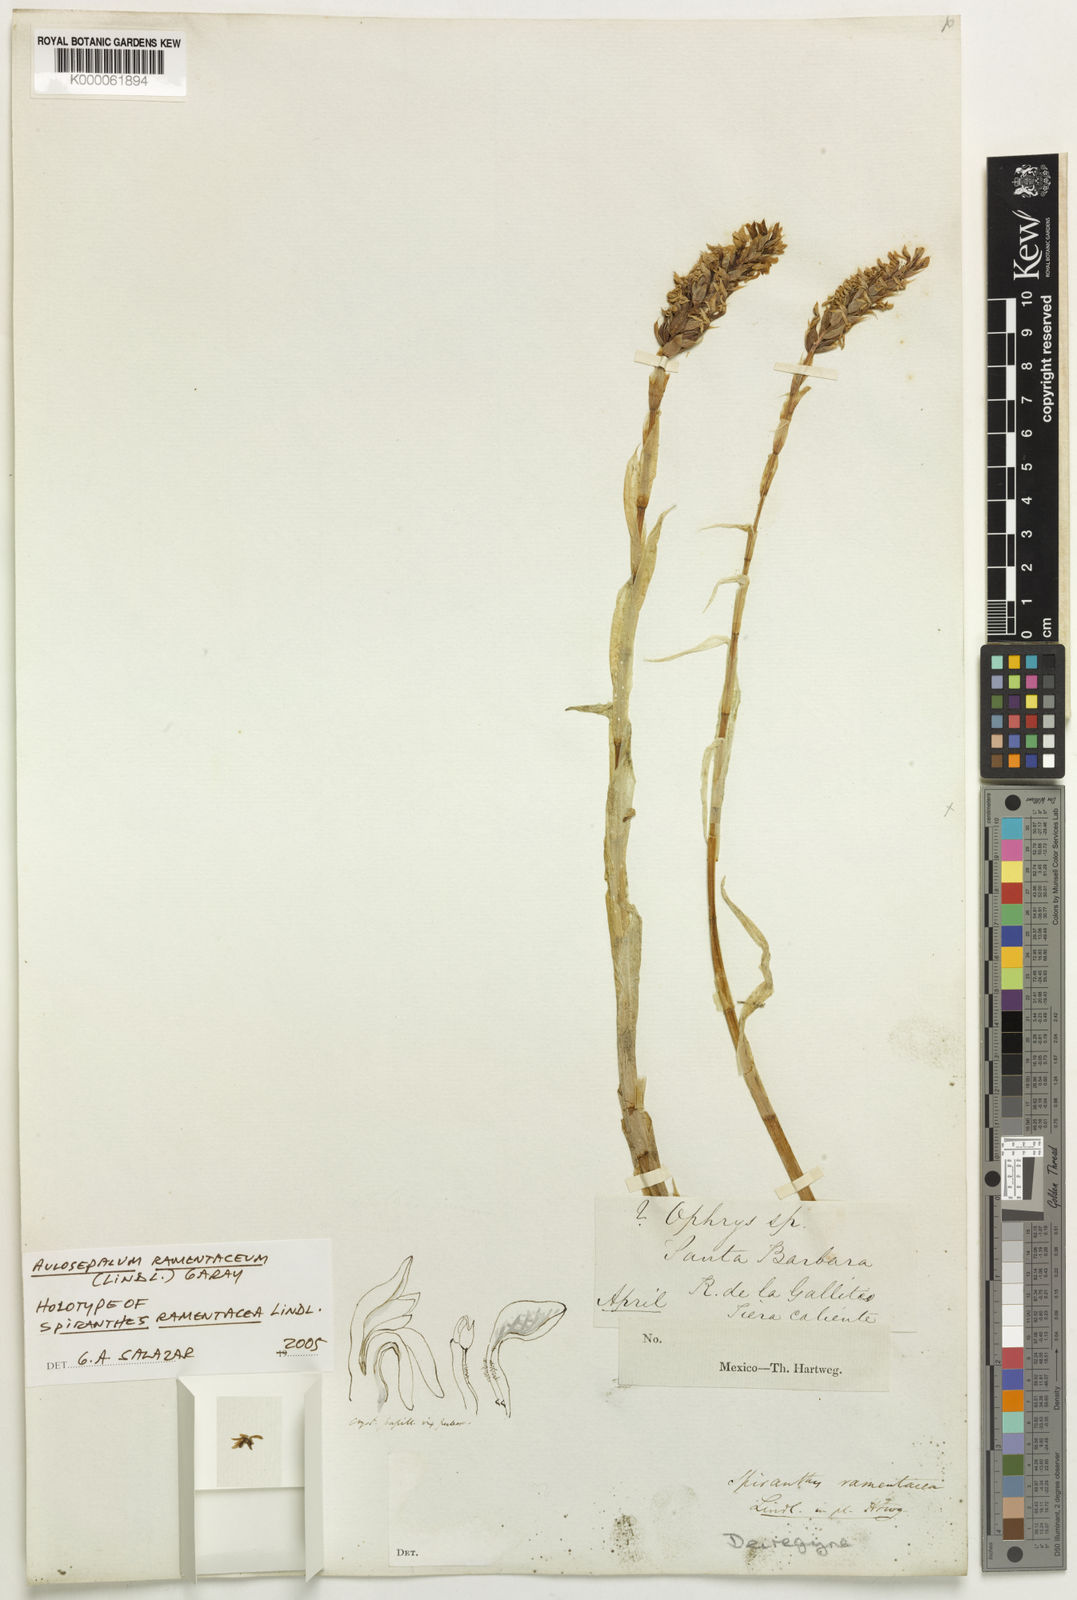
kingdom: Plantae
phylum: Tracheophyta
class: Liliopsida
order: Asparagales
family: Orchidaceae
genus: Aulosepalum
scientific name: Aulosepalum ramentaceum
